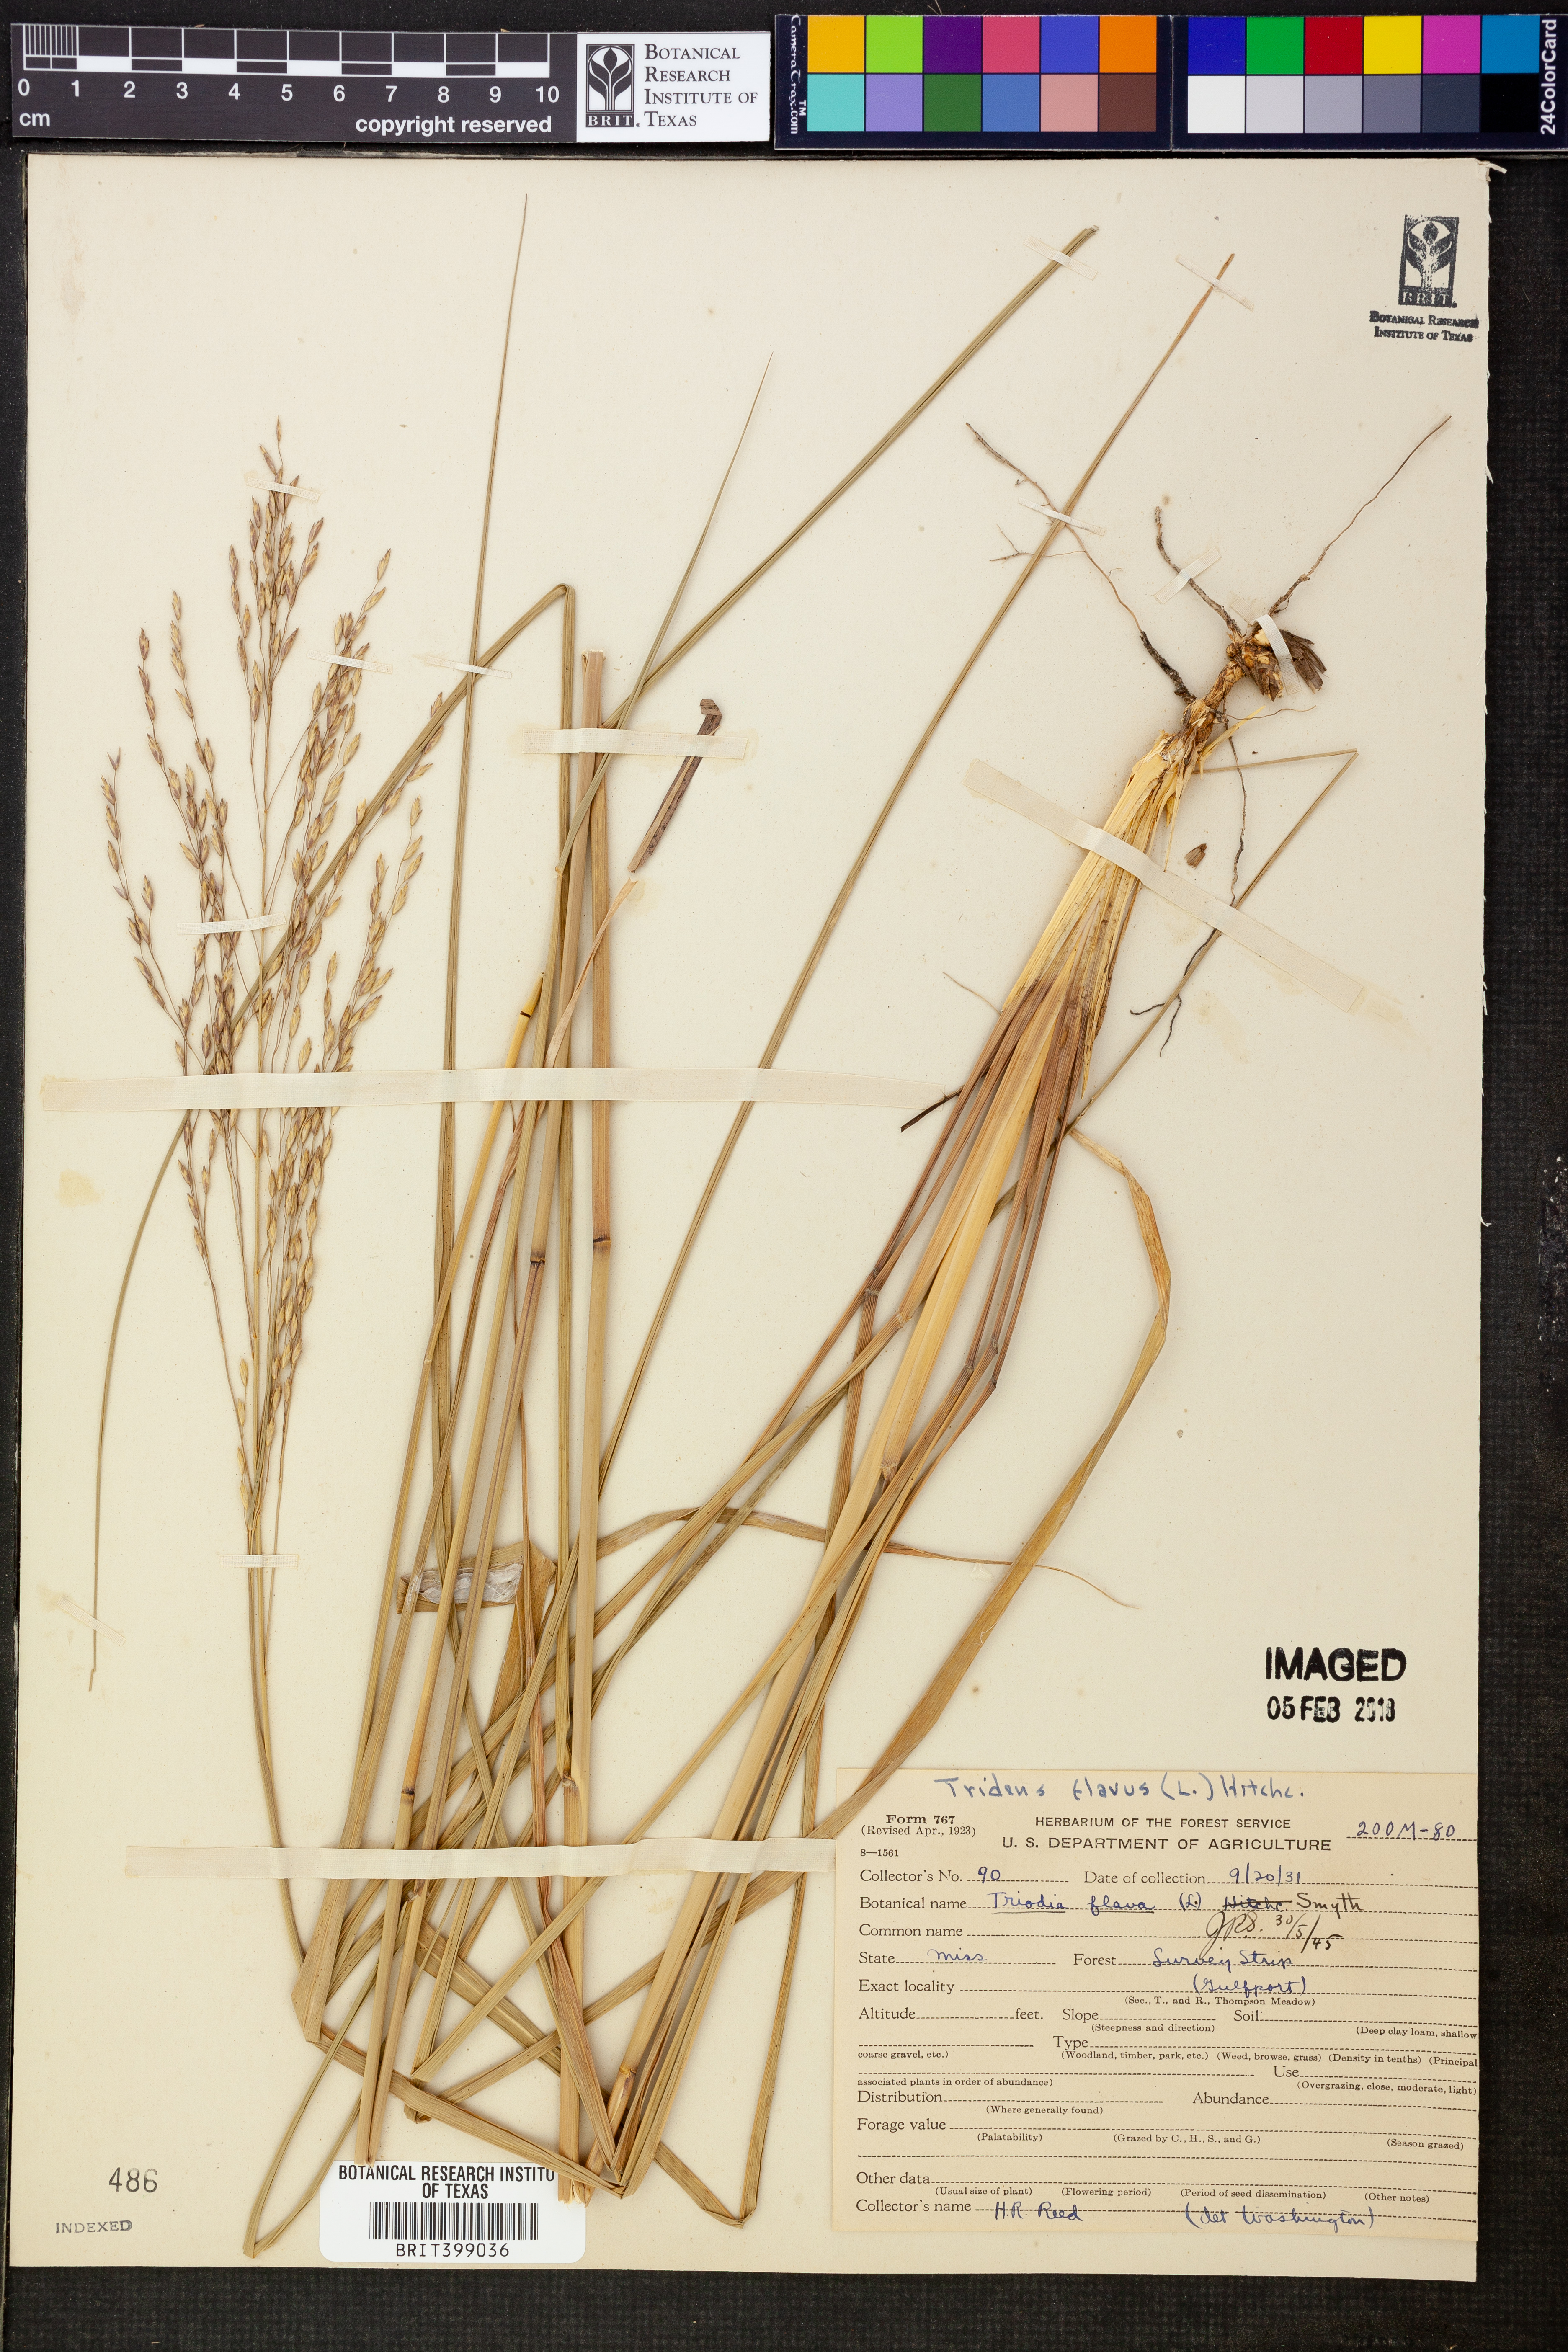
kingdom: Plantae
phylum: Tracheophyta
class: Liliopsida
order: Poales
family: Poaceae
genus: Tridens
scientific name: Tridens flavus
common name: Purpletop
